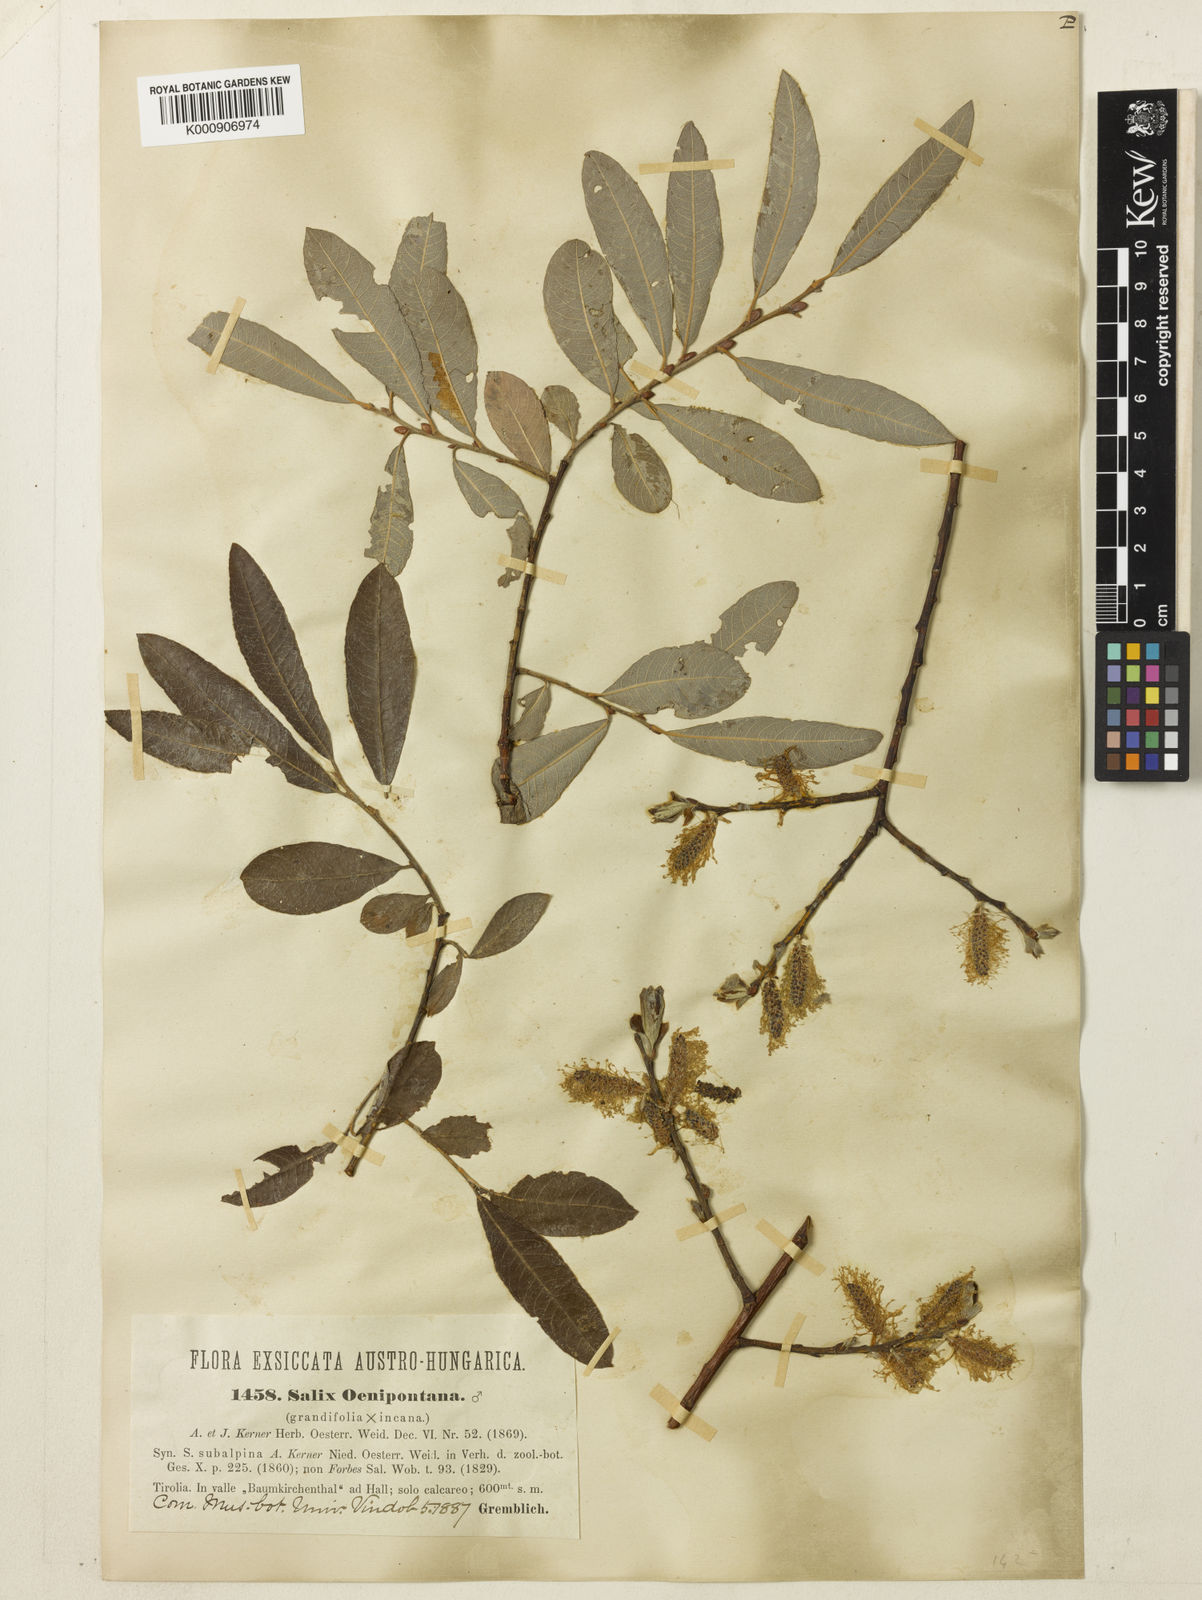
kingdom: Plantae
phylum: Tracheophyta
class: Magnoliopsida
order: Malpighiales
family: Salicaceae
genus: Salix
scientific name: Salix appendiculata
